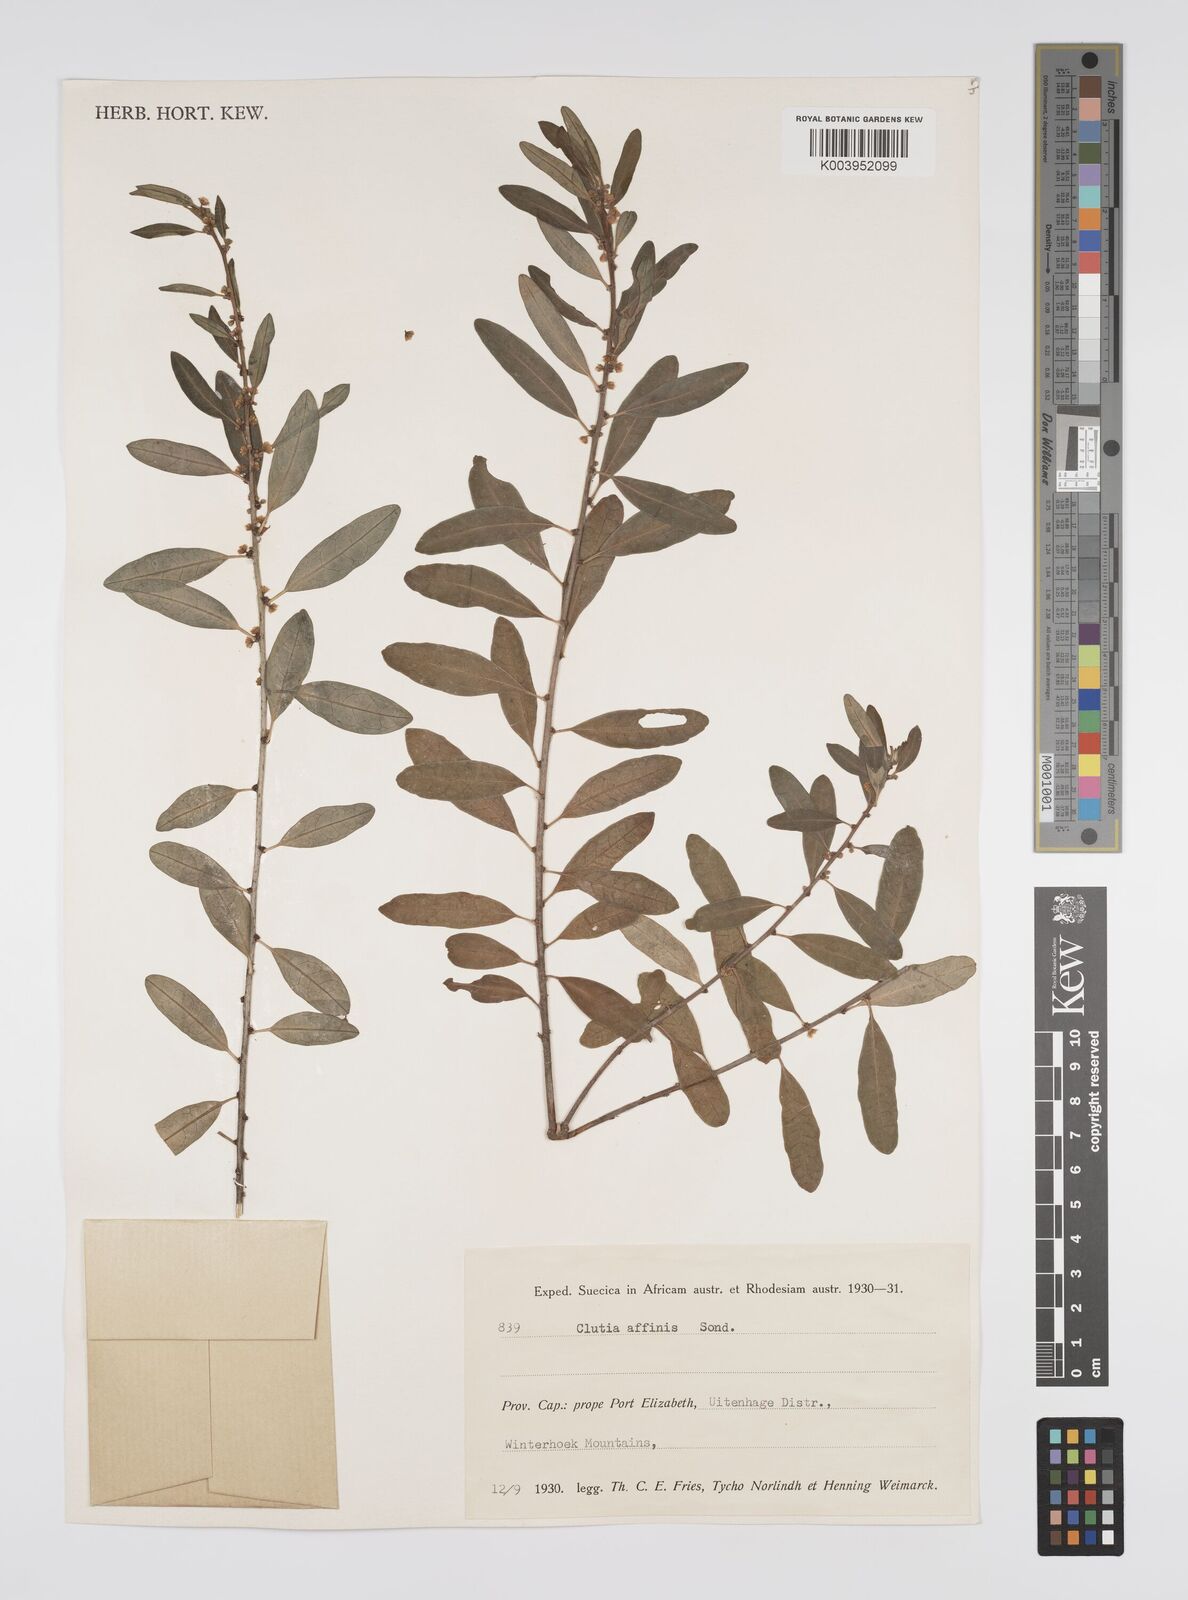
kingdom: Plantae
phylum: Tracheophyta
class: Magnoliopsida
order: Malpighiales
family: Peraceae
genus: Clutia
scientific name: Clutia affinis
